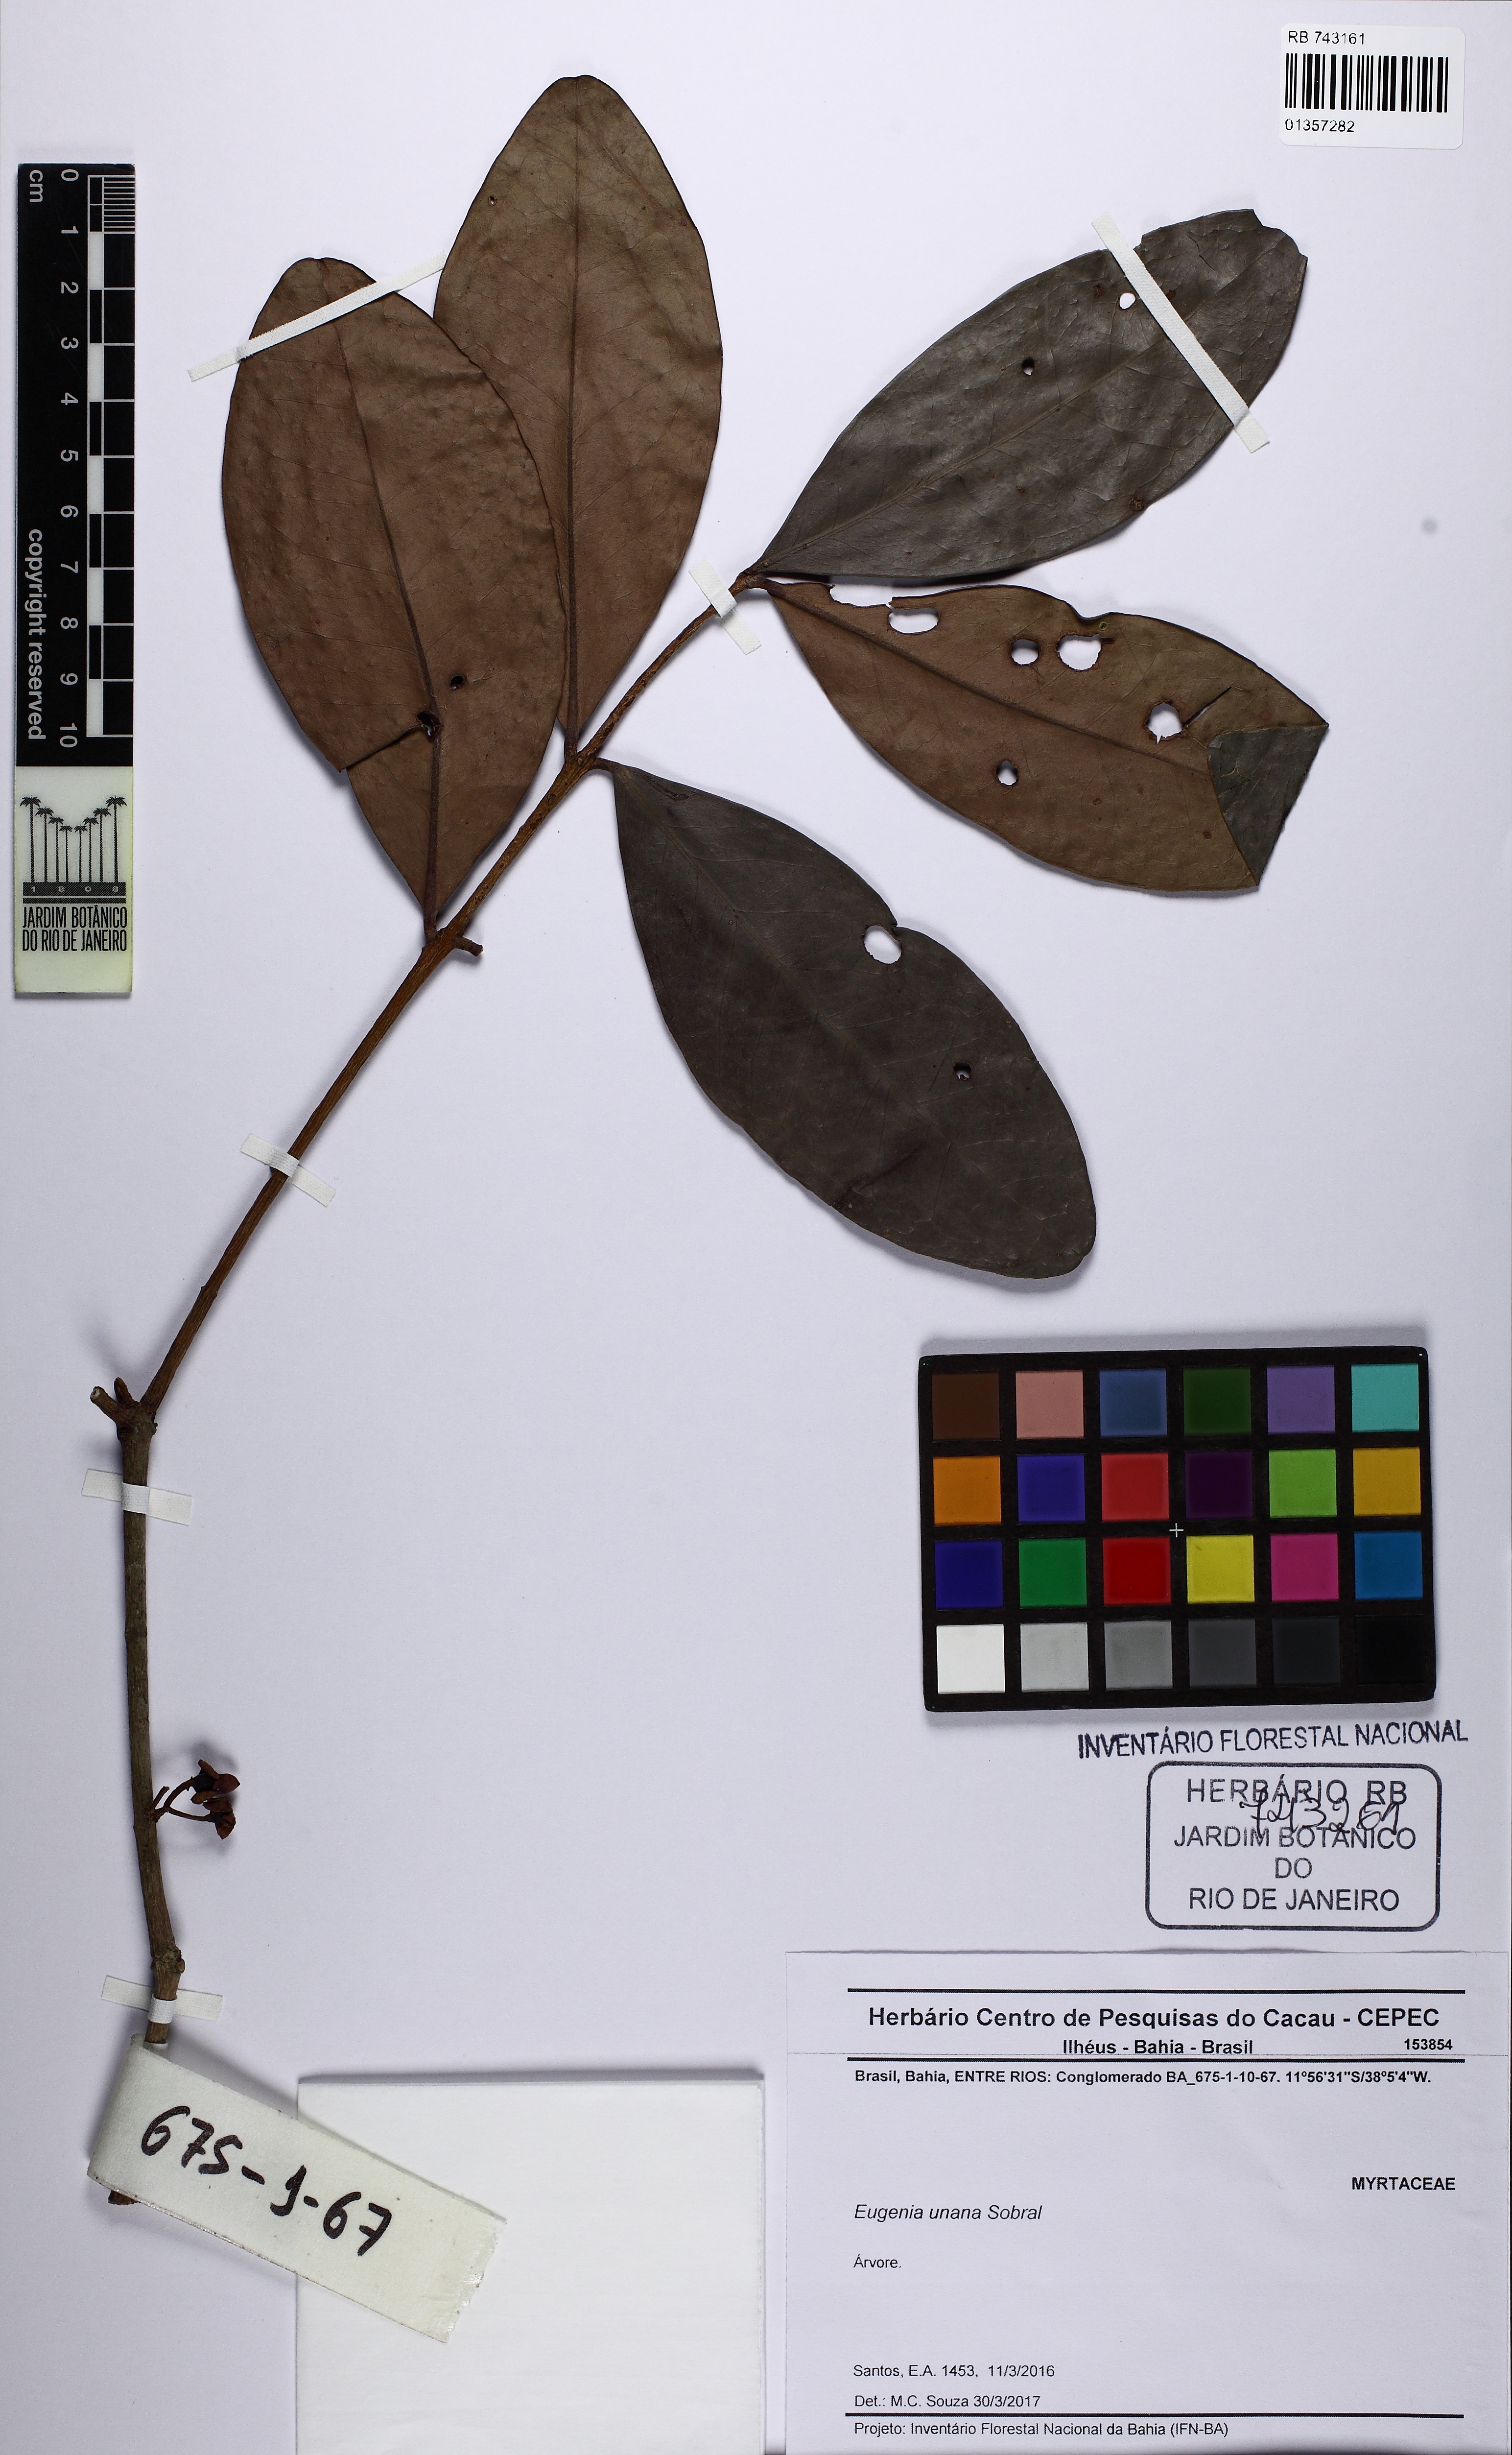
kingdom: Plantae
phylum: Tracheophyta
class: Magnoliopsida
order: Malpighiales
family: Ochnaceae
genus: Ouratea
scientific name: Ouratea rotundifolia
